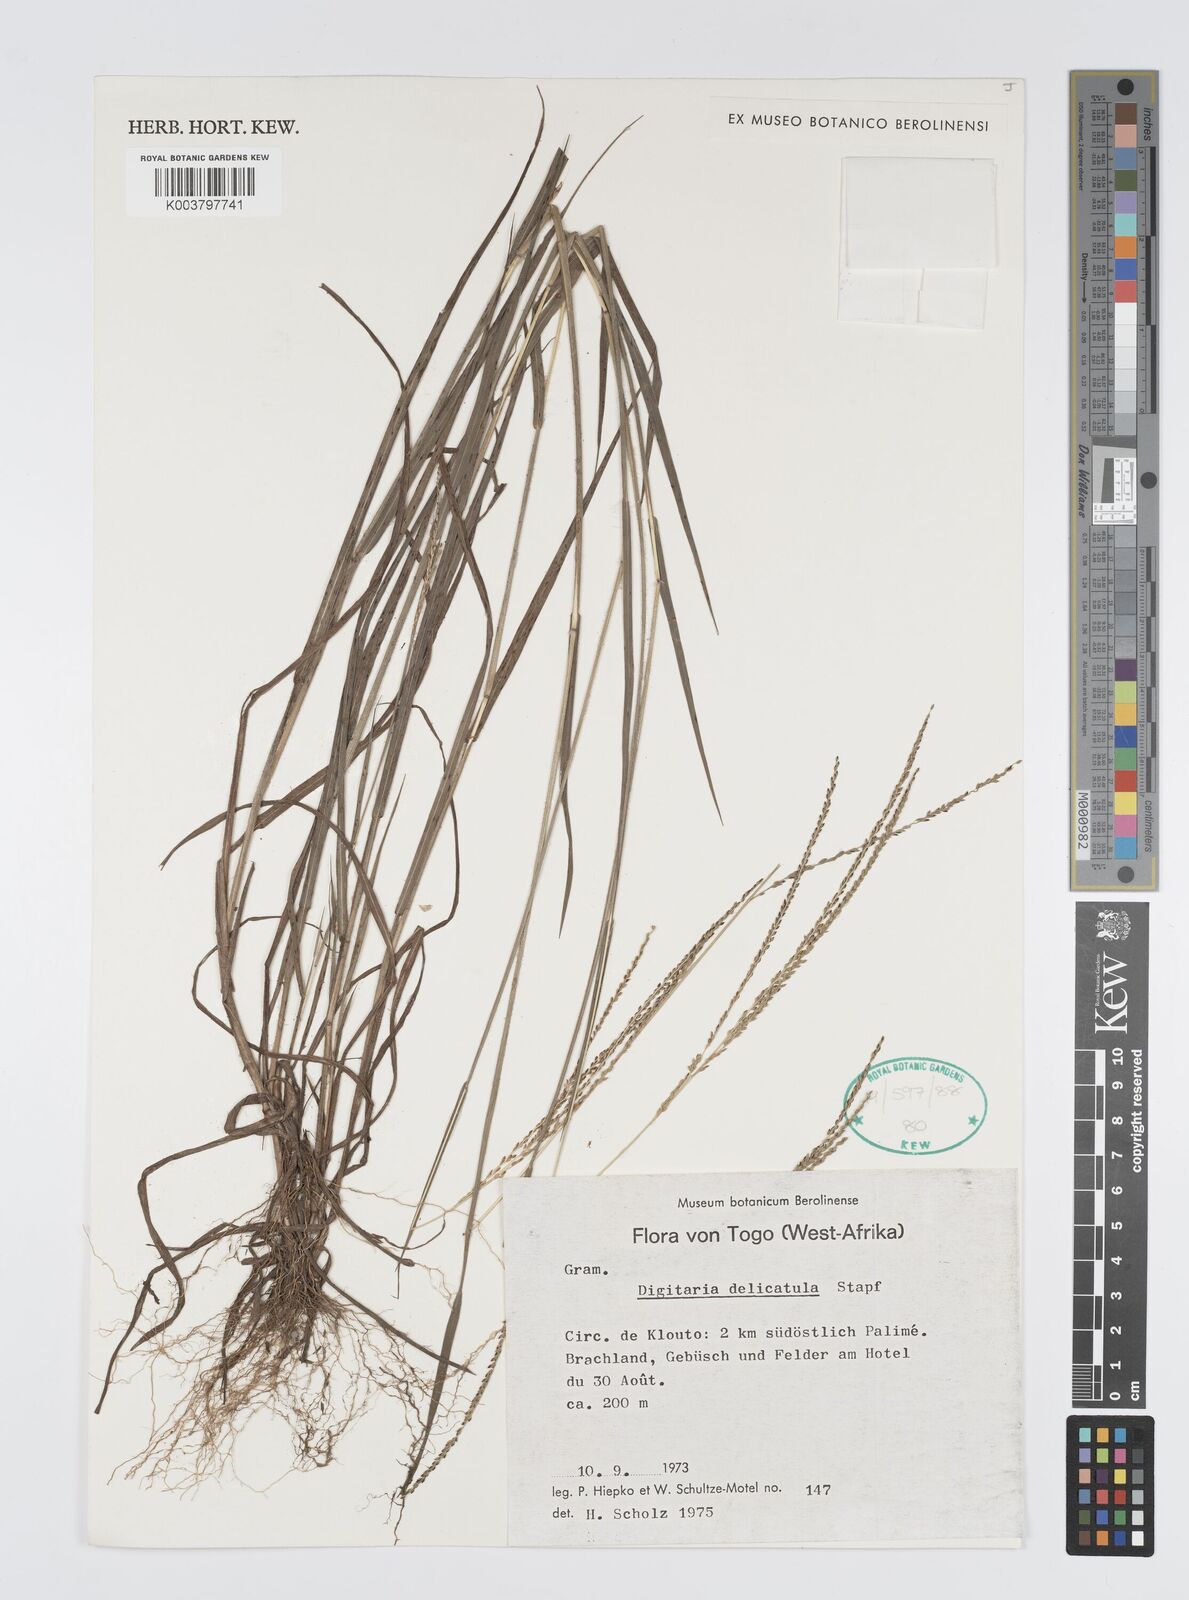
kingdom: Plantae
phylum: Tracheophyta
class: Liliopsida
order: Poales
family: Poaceae
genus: Digitaria
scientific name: Digitaria delicatula
